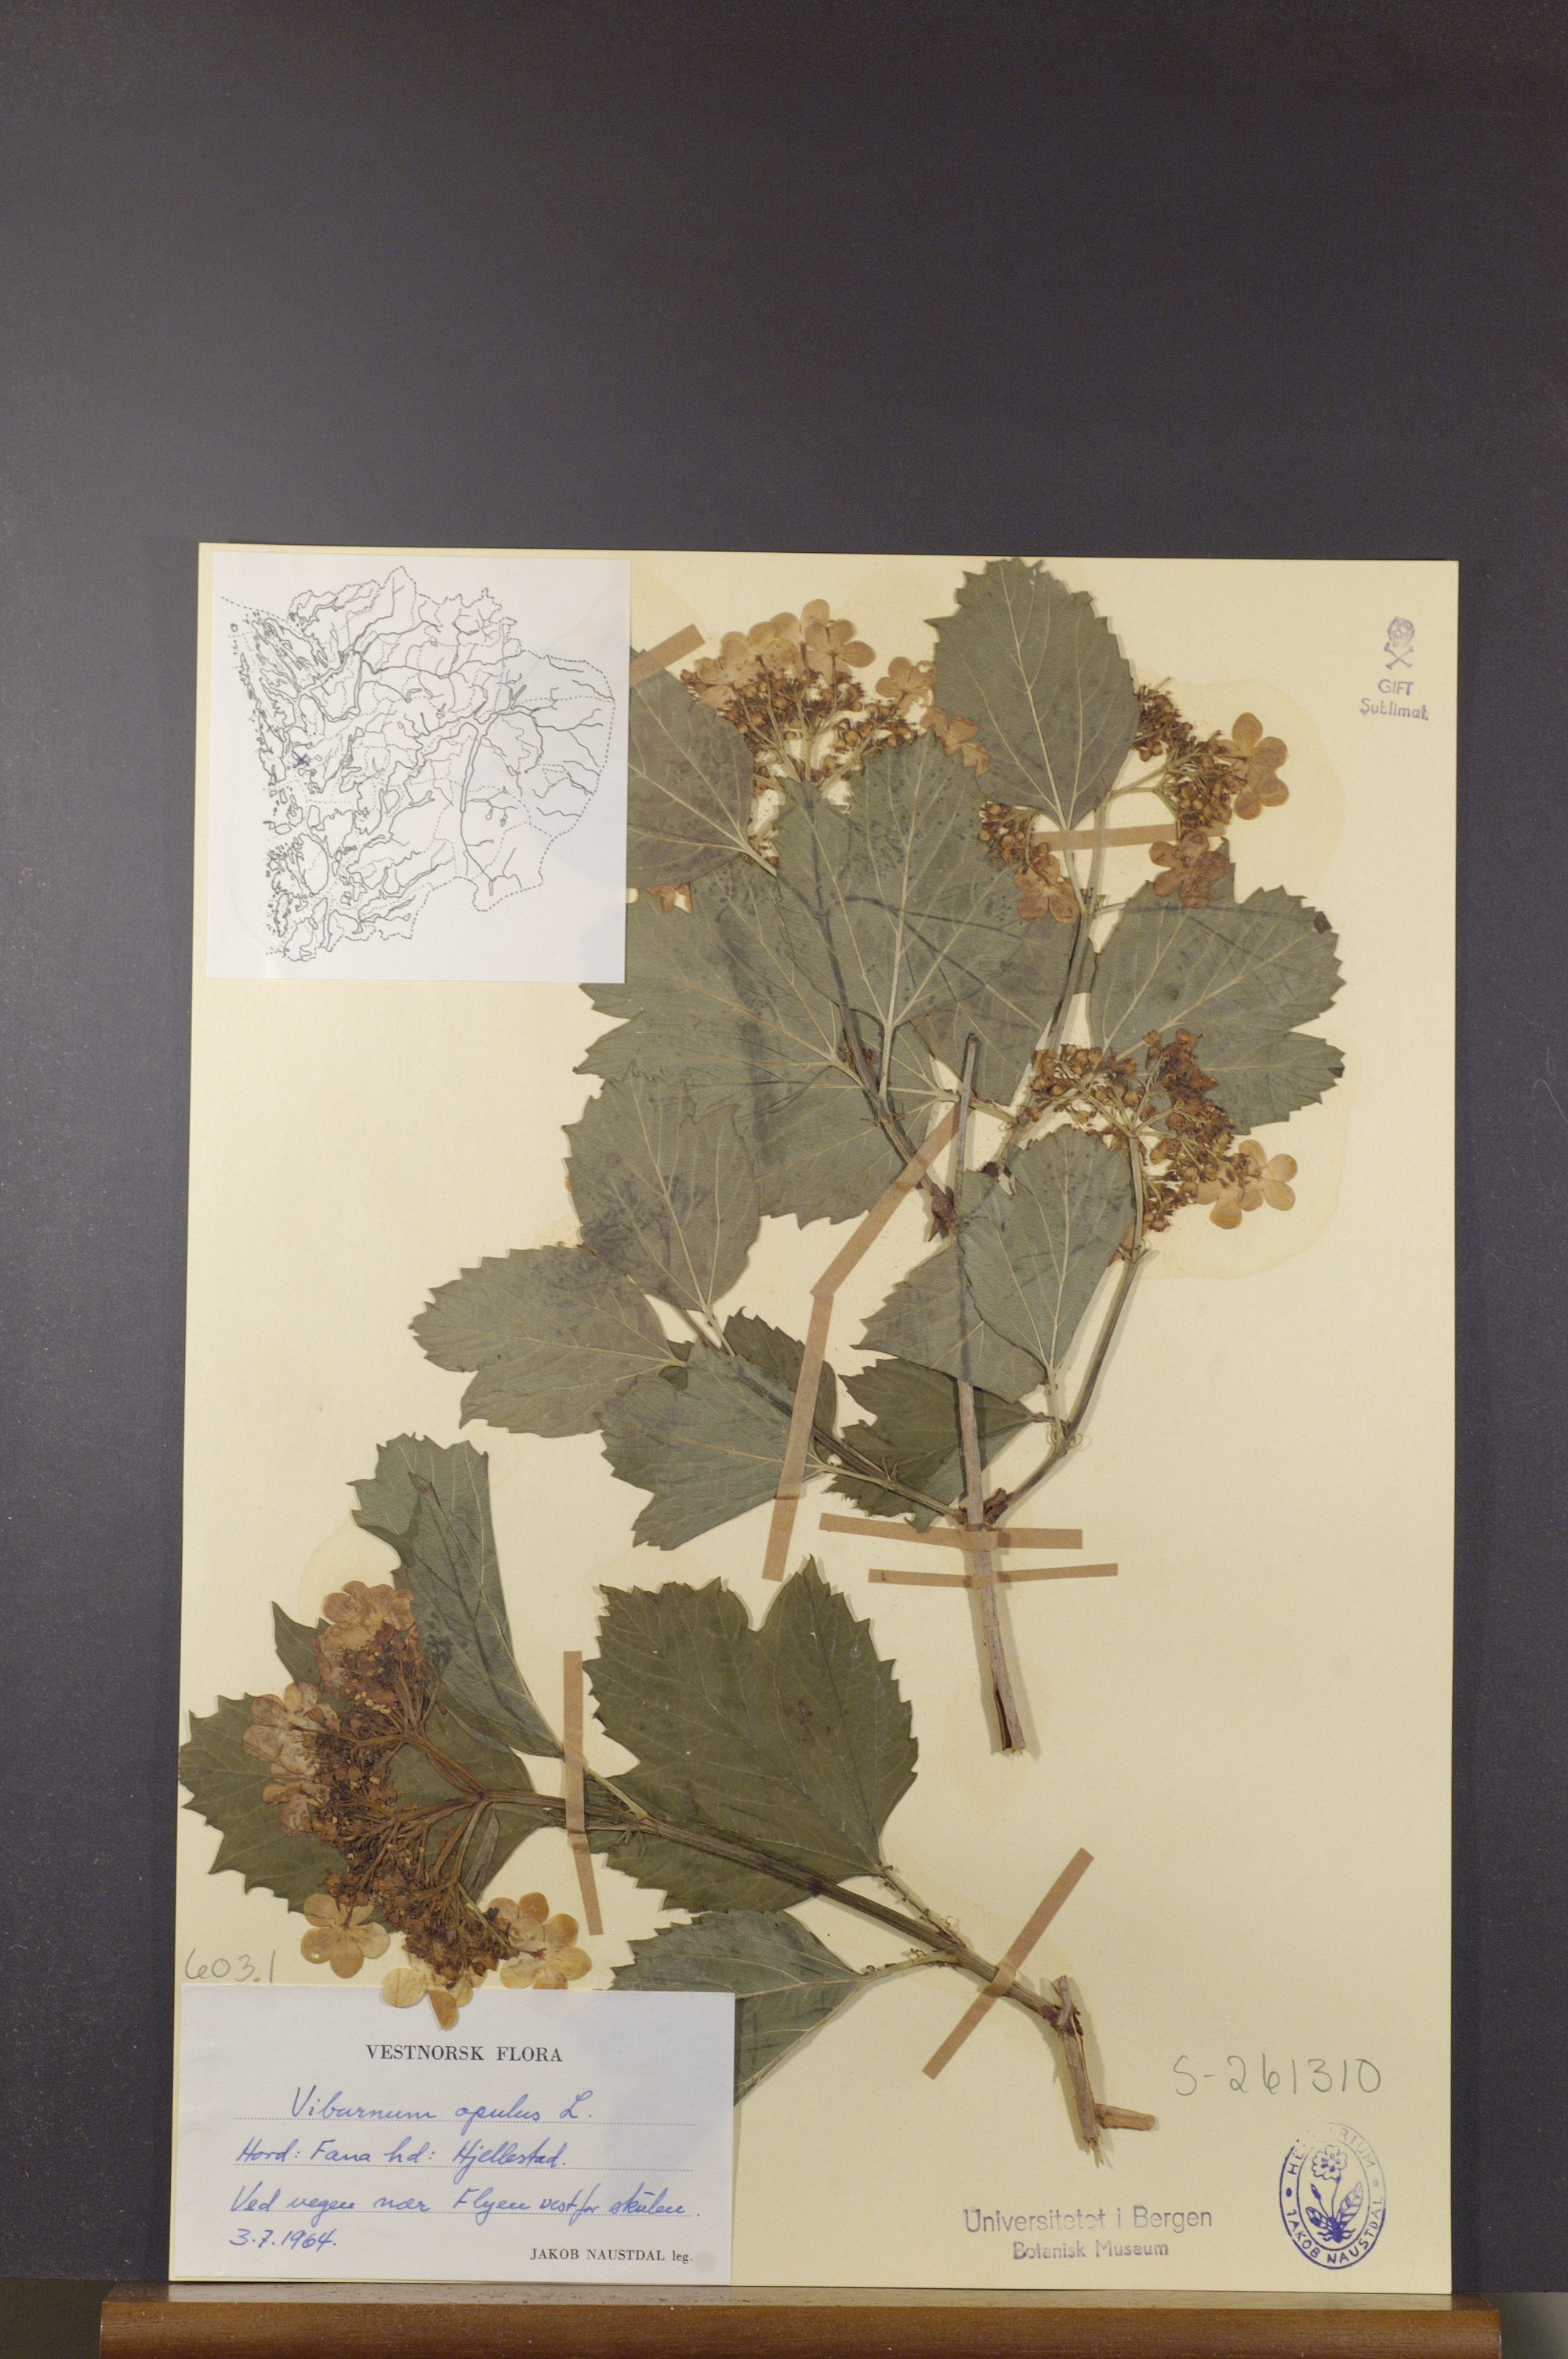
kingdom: Plantae
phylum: Tracheophyta
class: Magnoliopsida
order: Dipsacales
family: Viburnaceae
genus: Viburnum
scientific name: Viburnum opulus
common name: Guelder-rose
